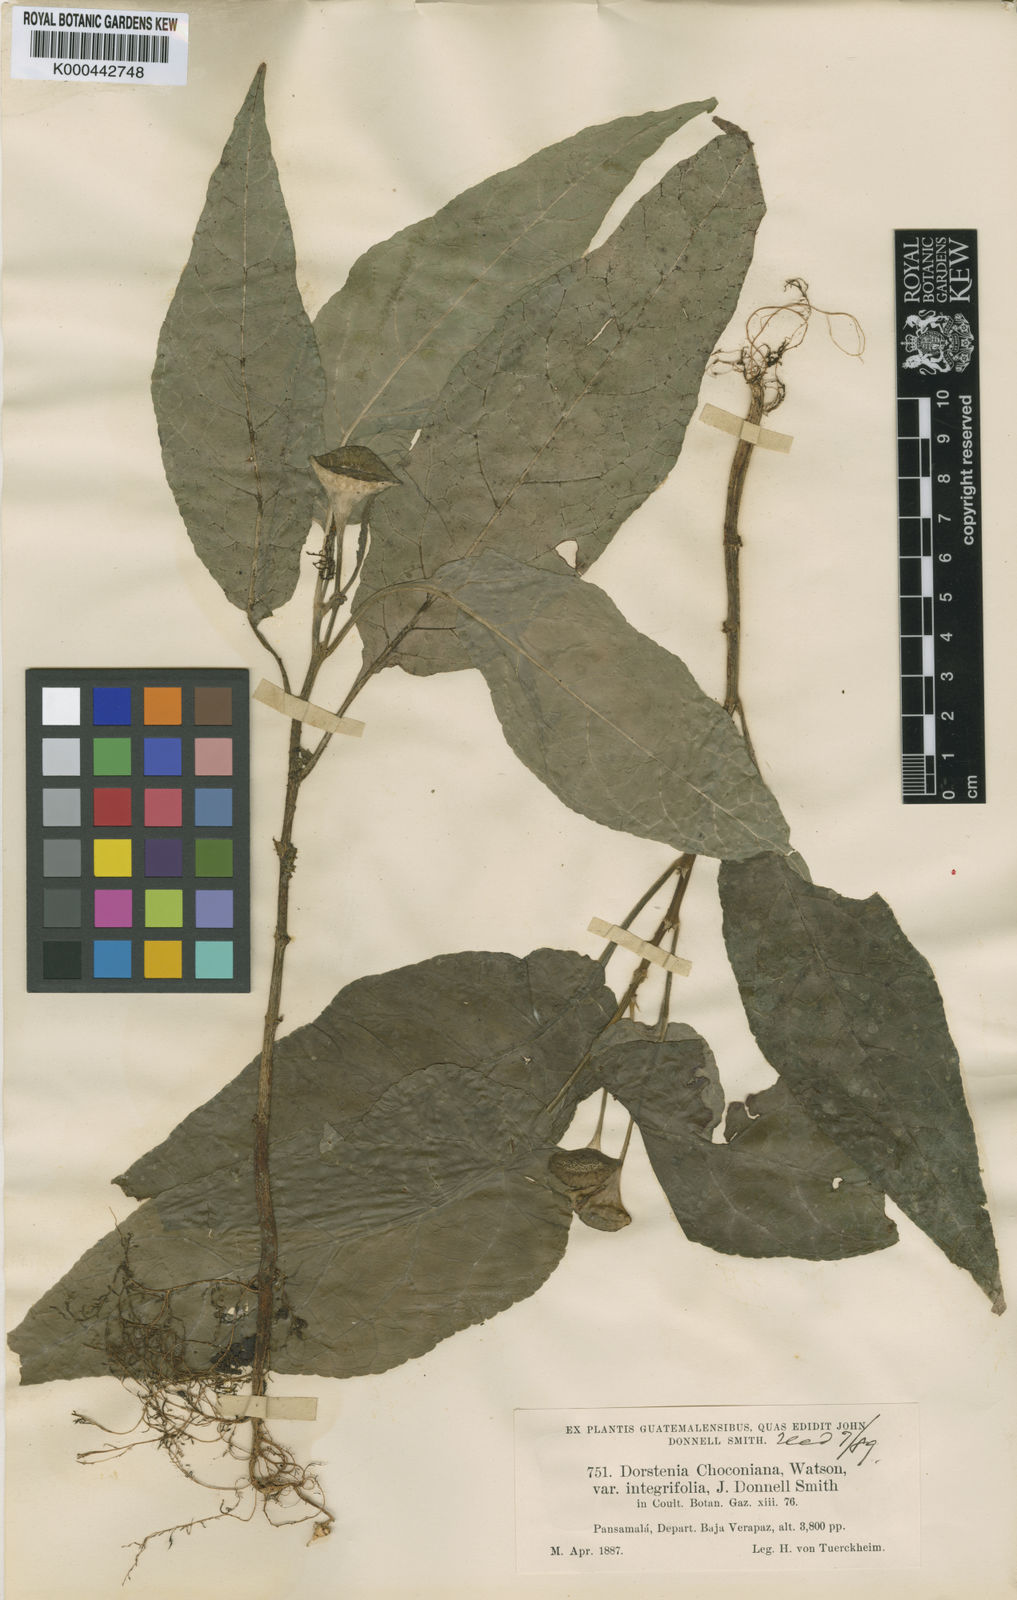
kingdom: Plantae
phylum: Tracheophyta
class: Magnoliopsida
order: Rosales
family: Moraceae
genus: Dorstenia
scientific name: Dorstenia choconiana
